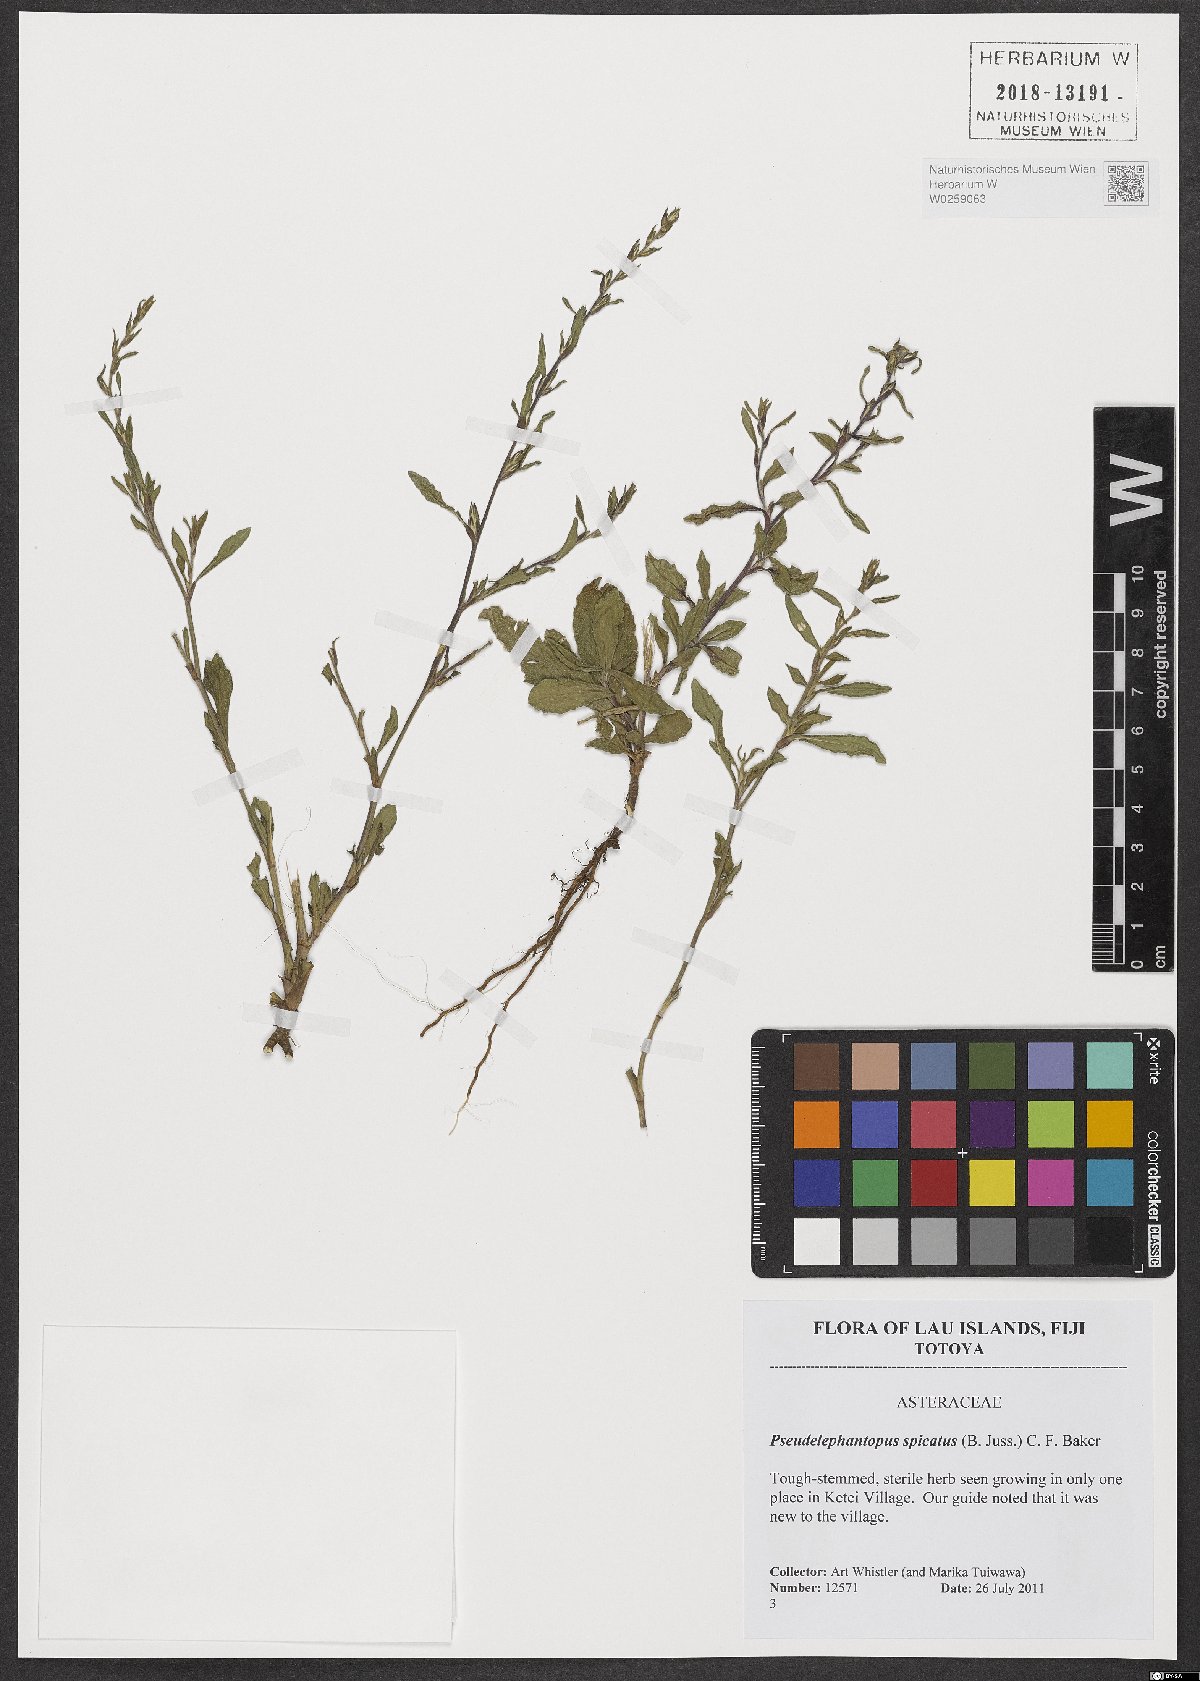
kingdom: Plantae
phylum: Tracheophyta
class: Magnoliopsida
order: Asterales
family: Asteraceae
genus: Pseudelephantopus
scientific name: Pseudelephantopus spicatus
